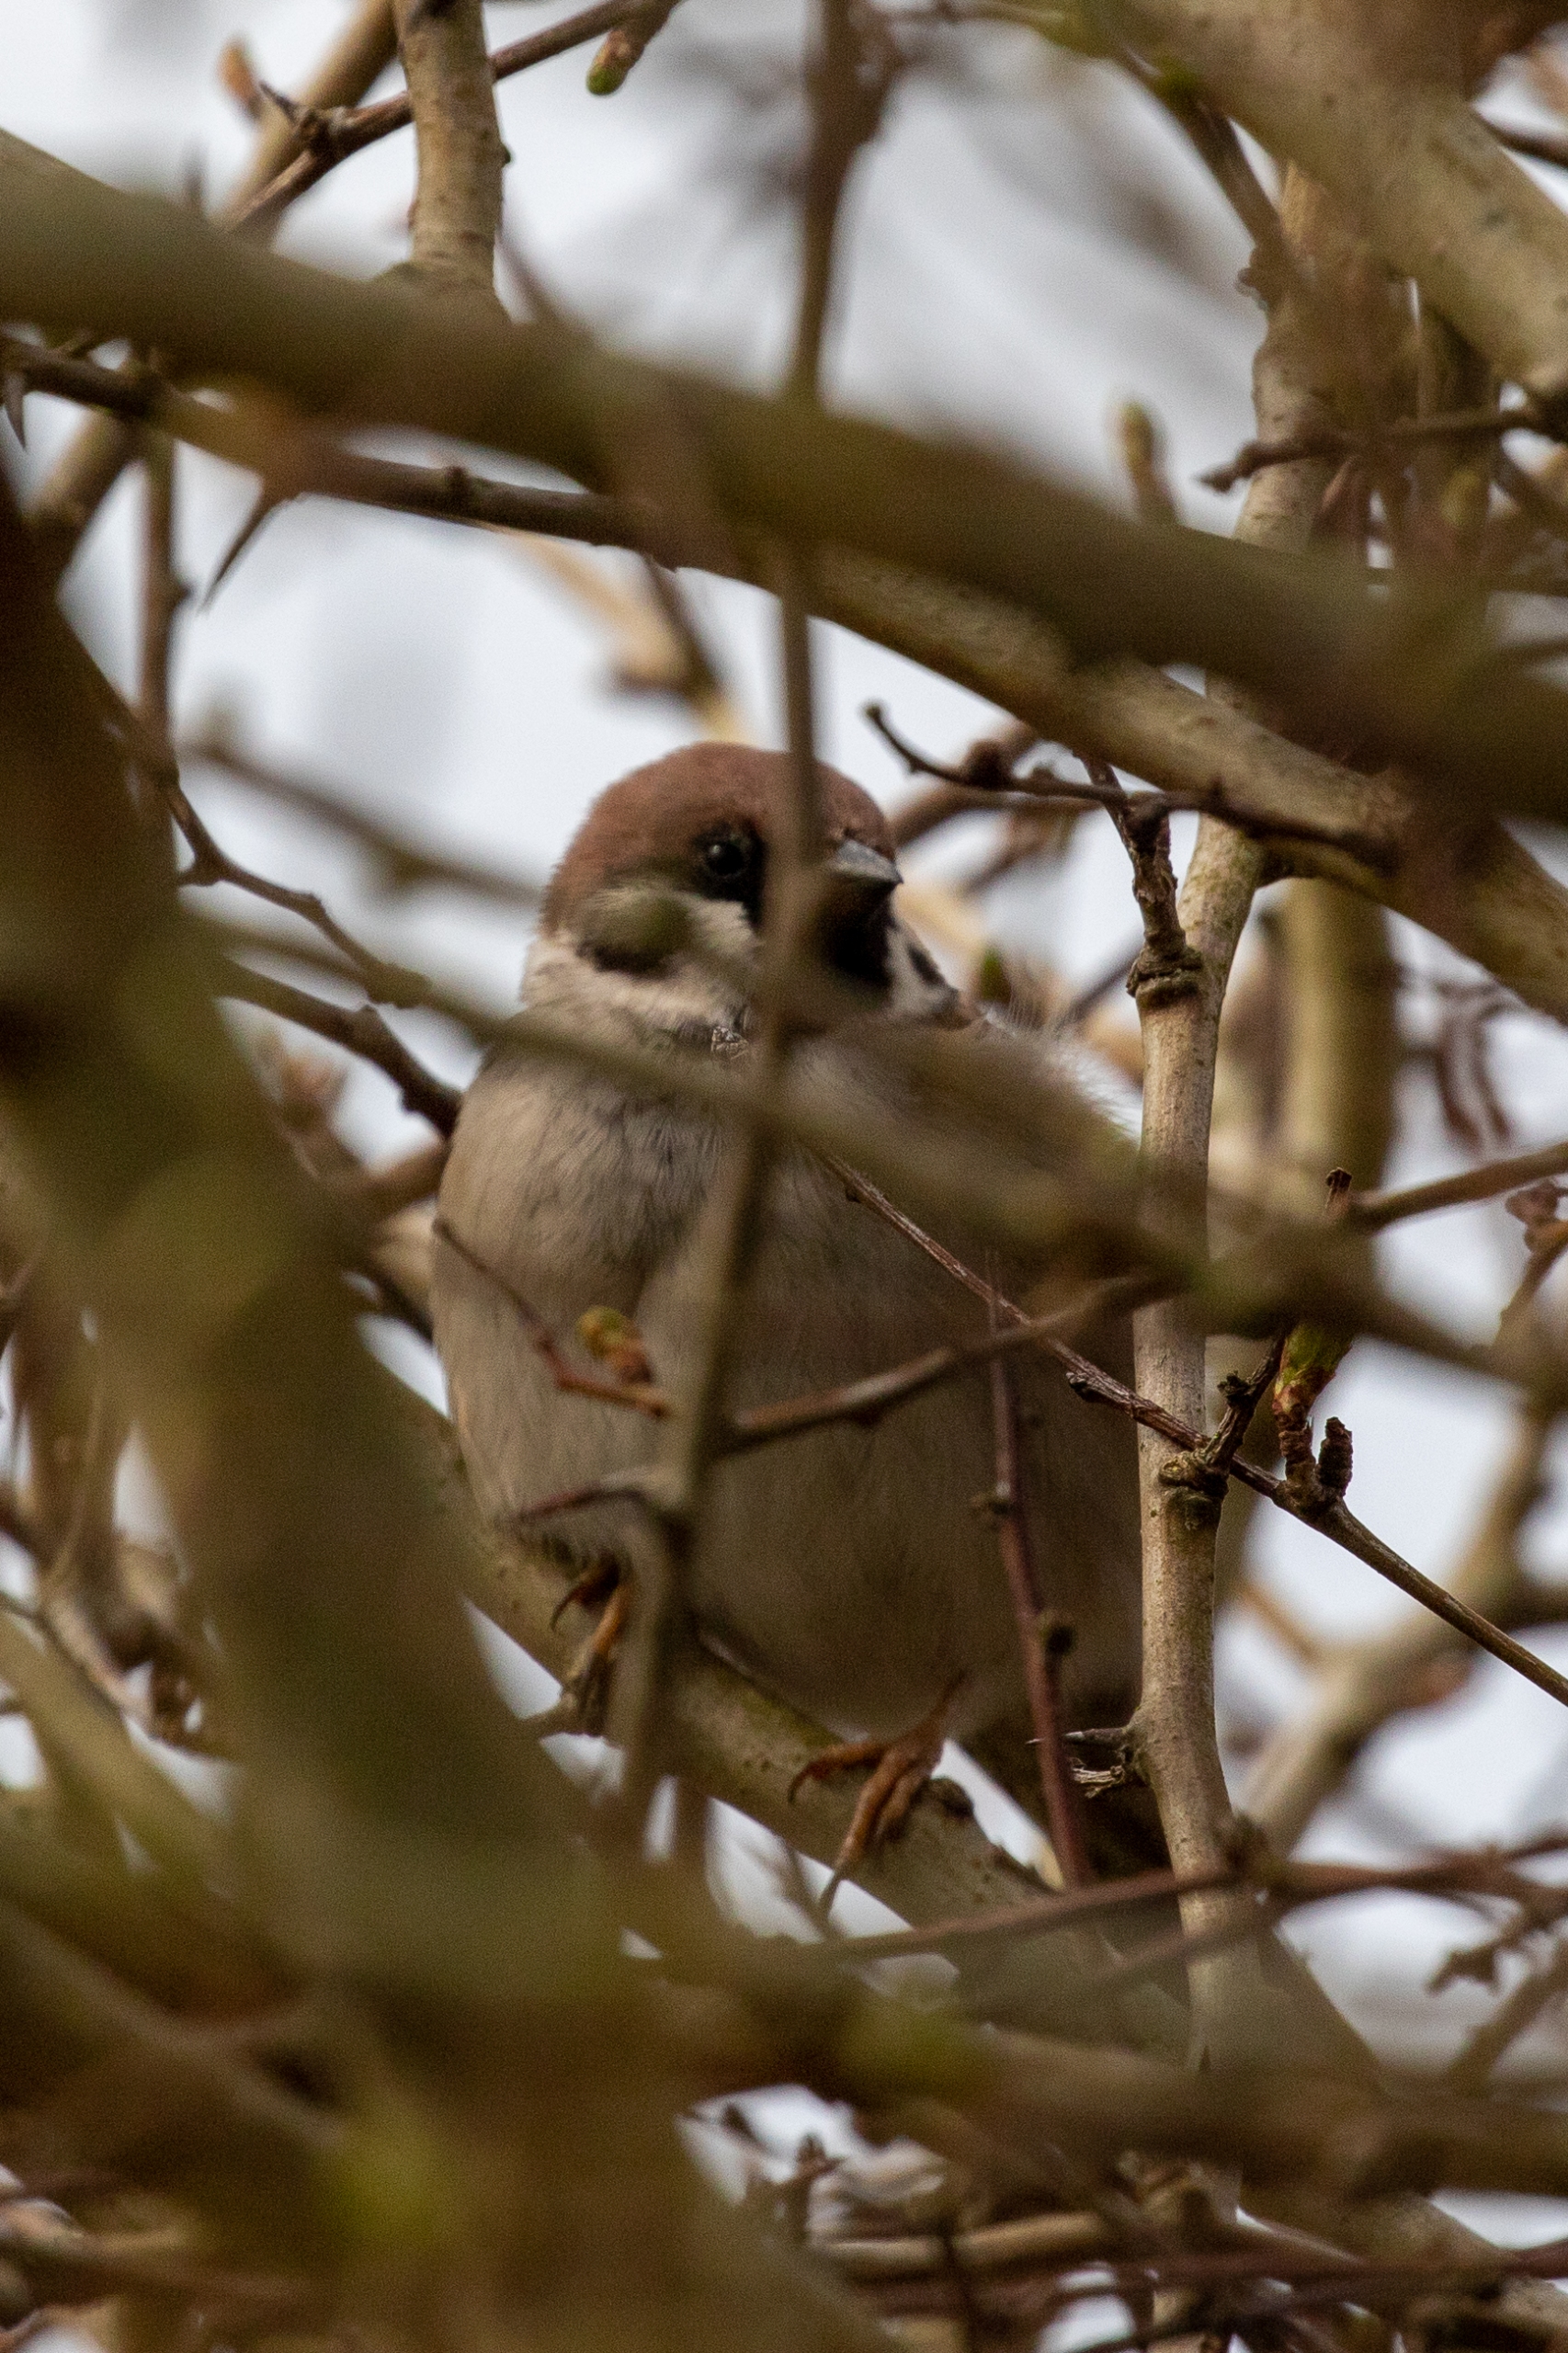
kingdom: Animalia
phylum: Chordata
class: Aves
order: Passeriformes
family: Passeridae
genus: Passer
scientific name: Passer montanus
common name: Skovspurv
